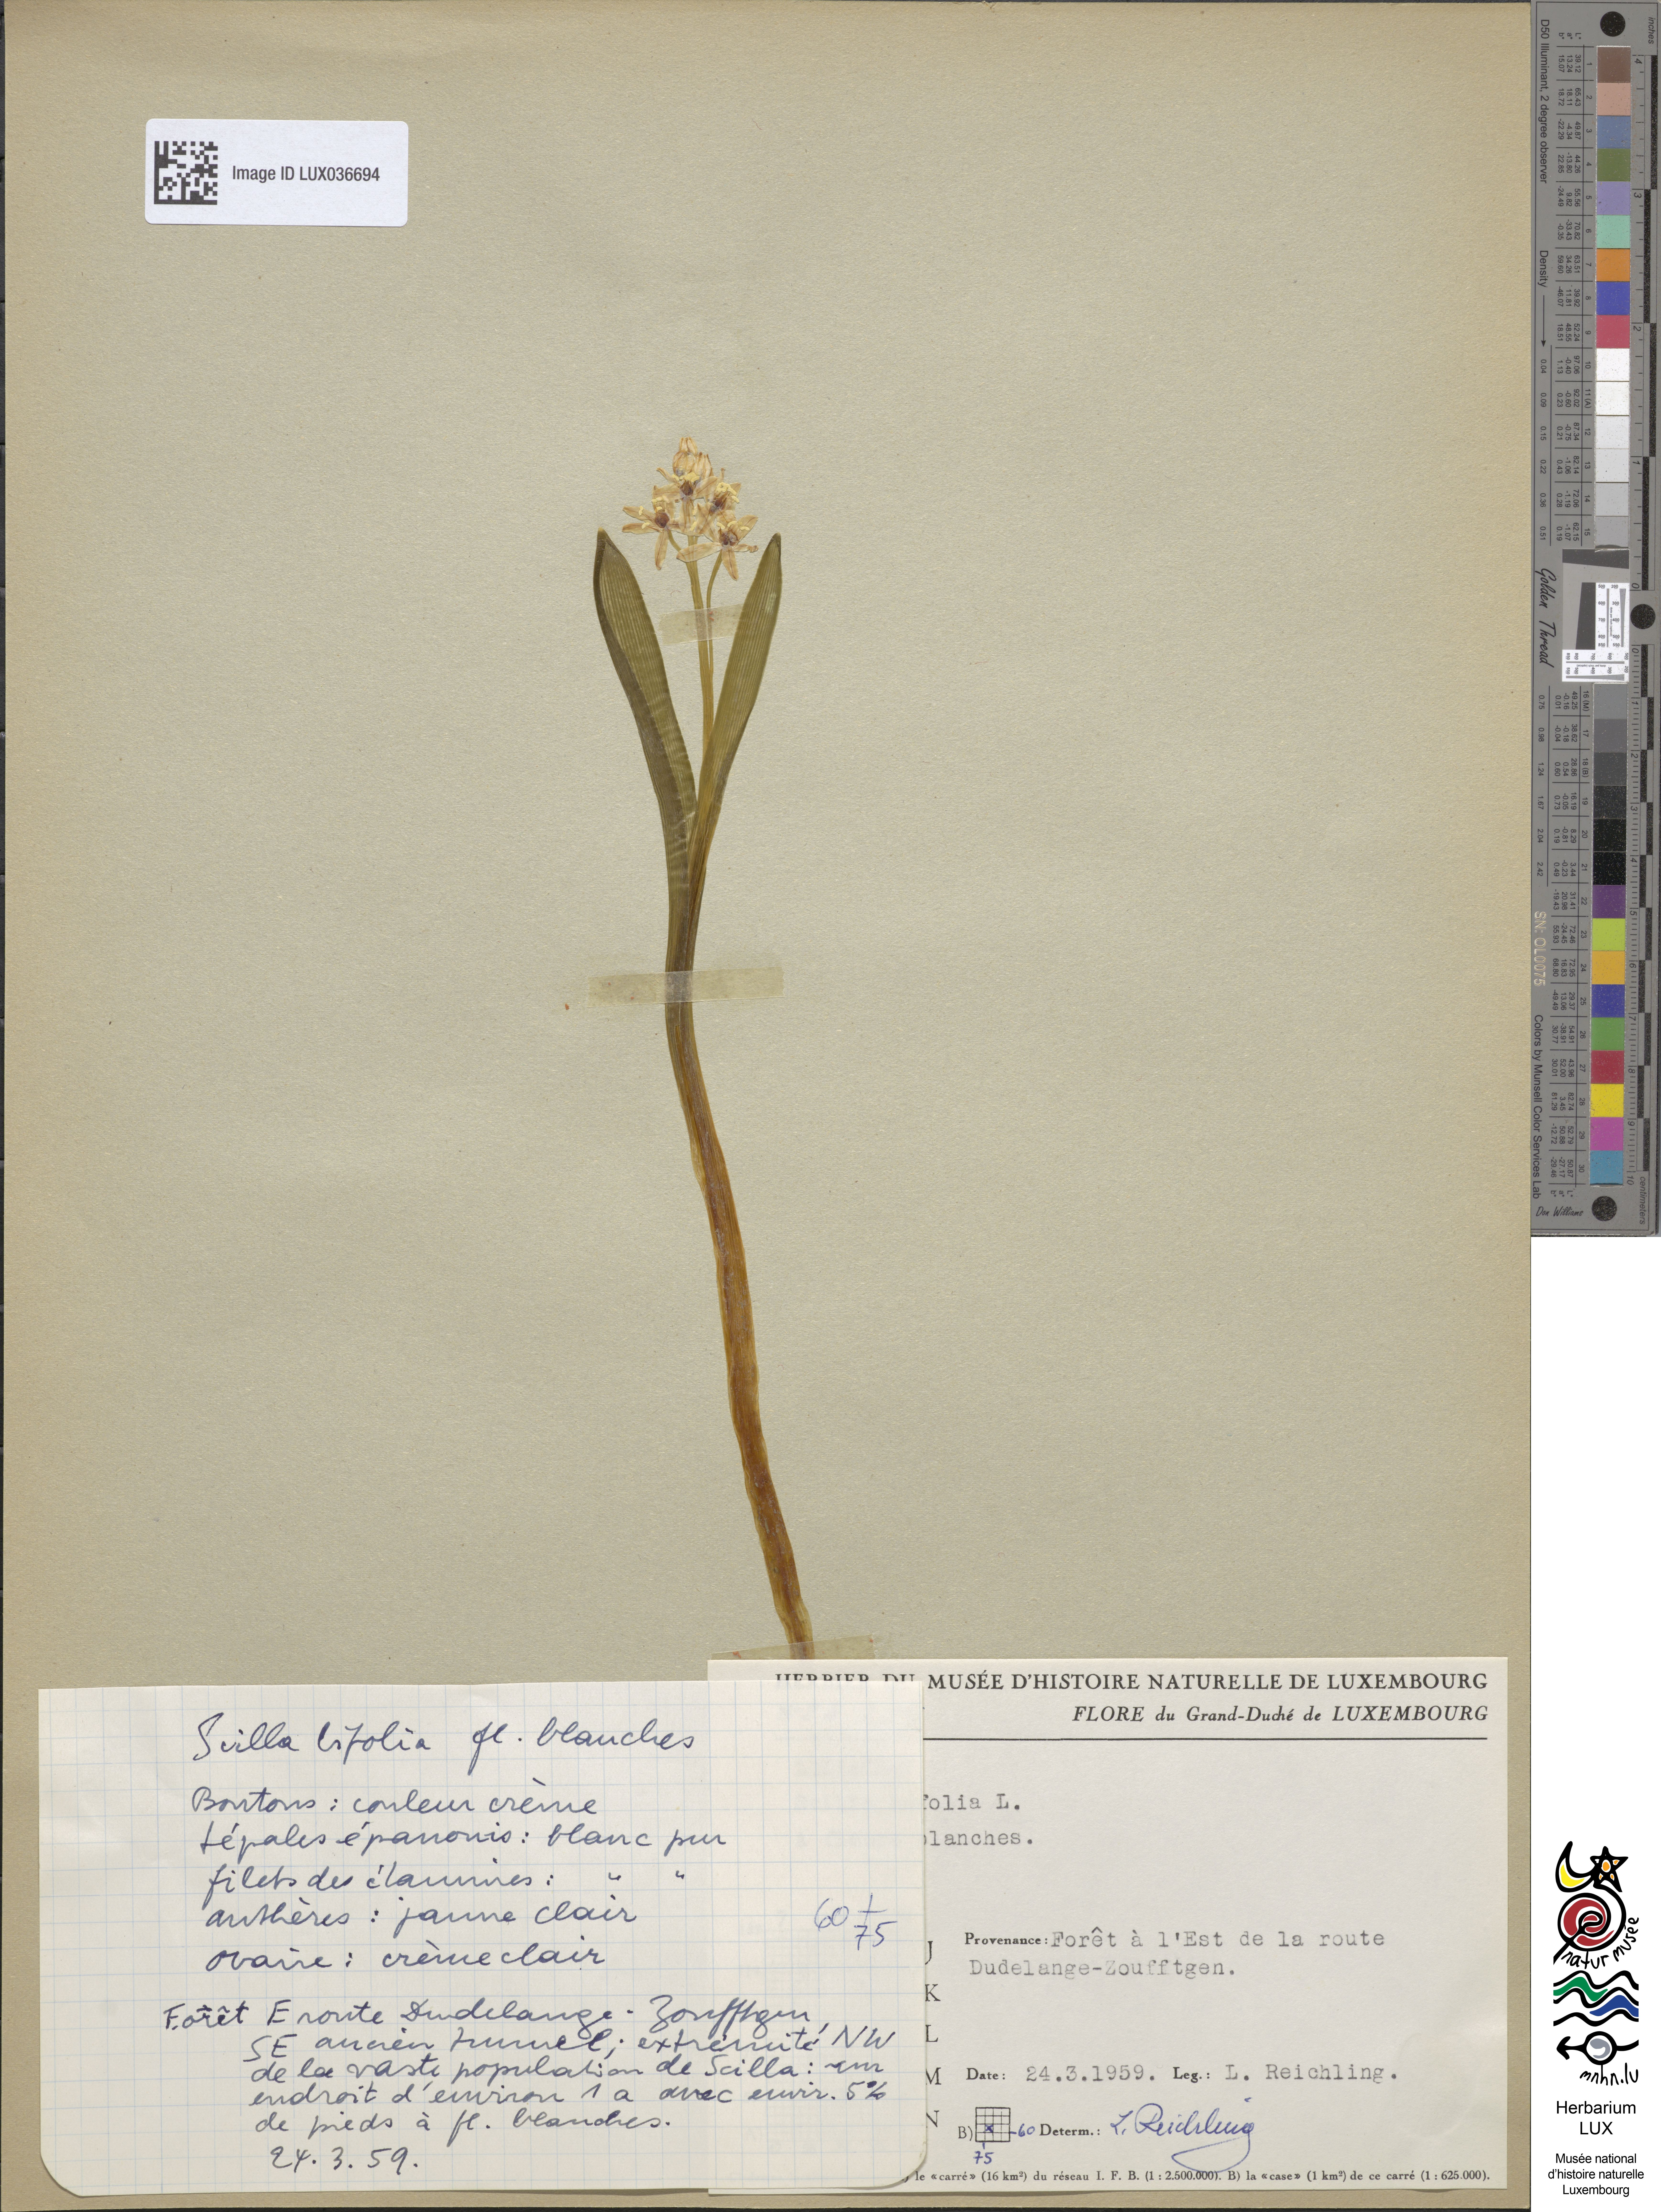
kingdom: Plantae
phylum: Tracheophyta
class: Liliopsida
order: Asparagales
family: Asparagaceae
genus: Scilla
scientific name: Scilla bifolia
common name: Alpine squill
